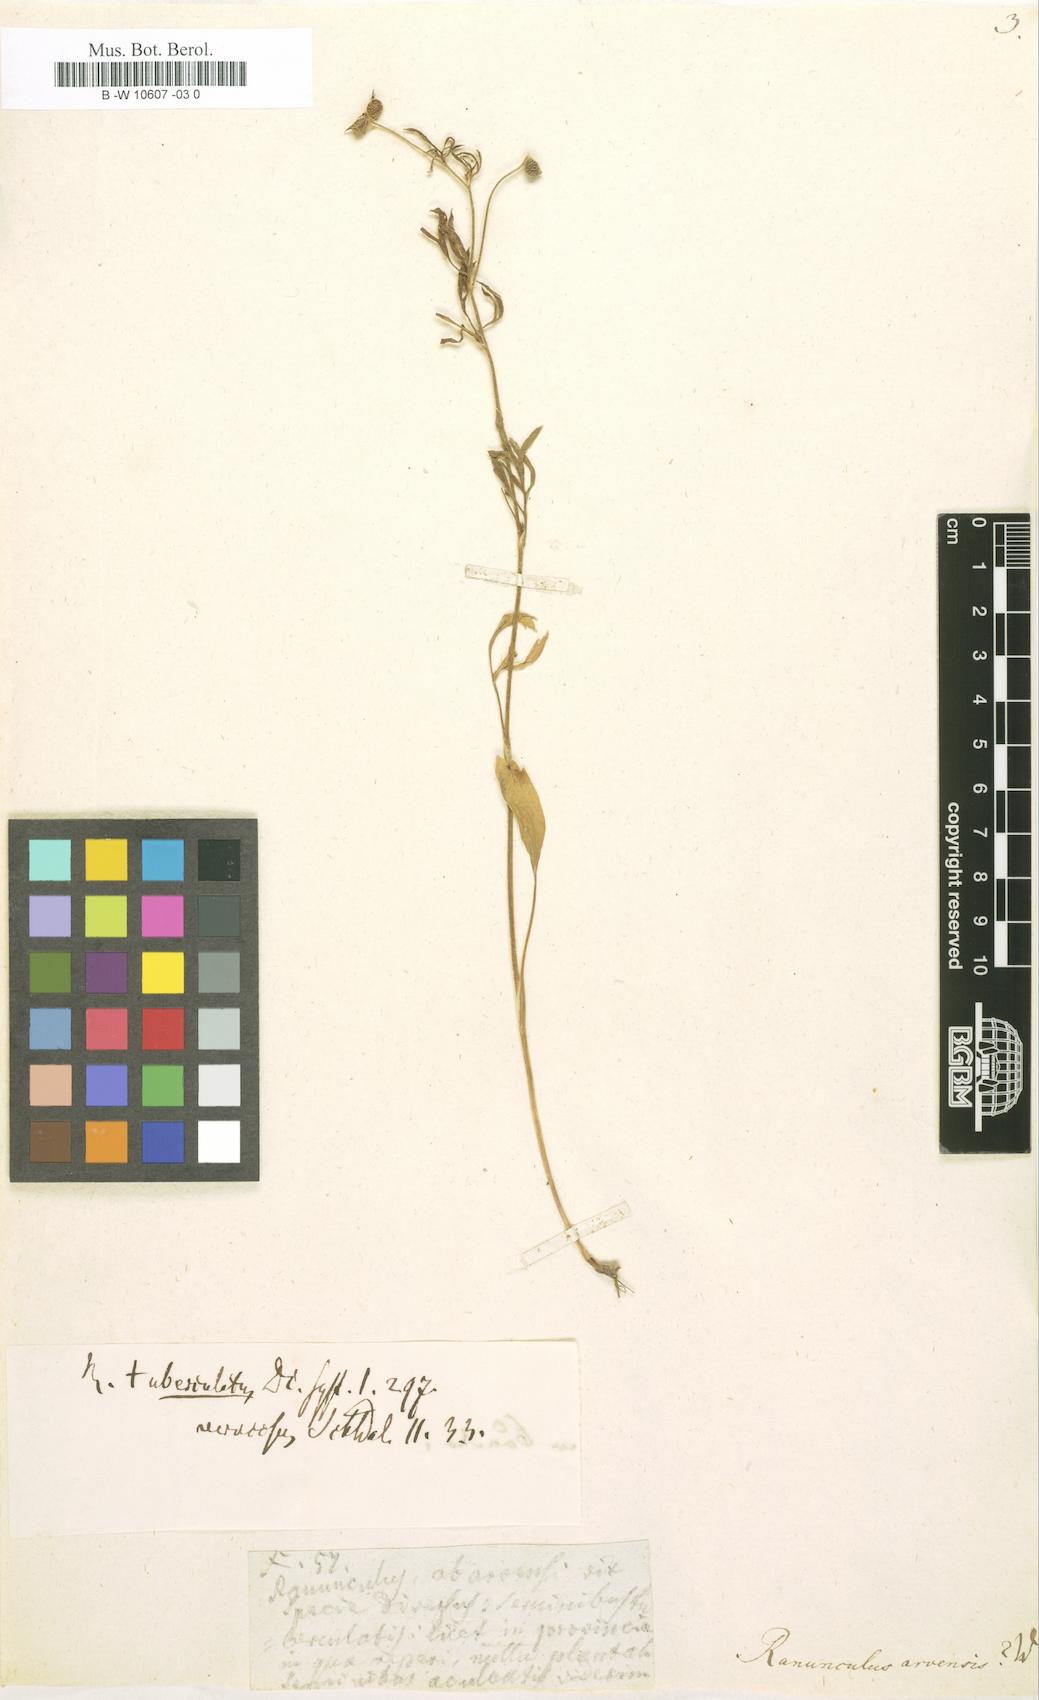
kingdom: Plantae
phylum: Tracheophyta
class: Magnoliopsida
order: Ranunculales
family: Ranunculaceae
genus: Ranunculus
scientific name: Ranunculus arvensis
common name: Corn buttercup
